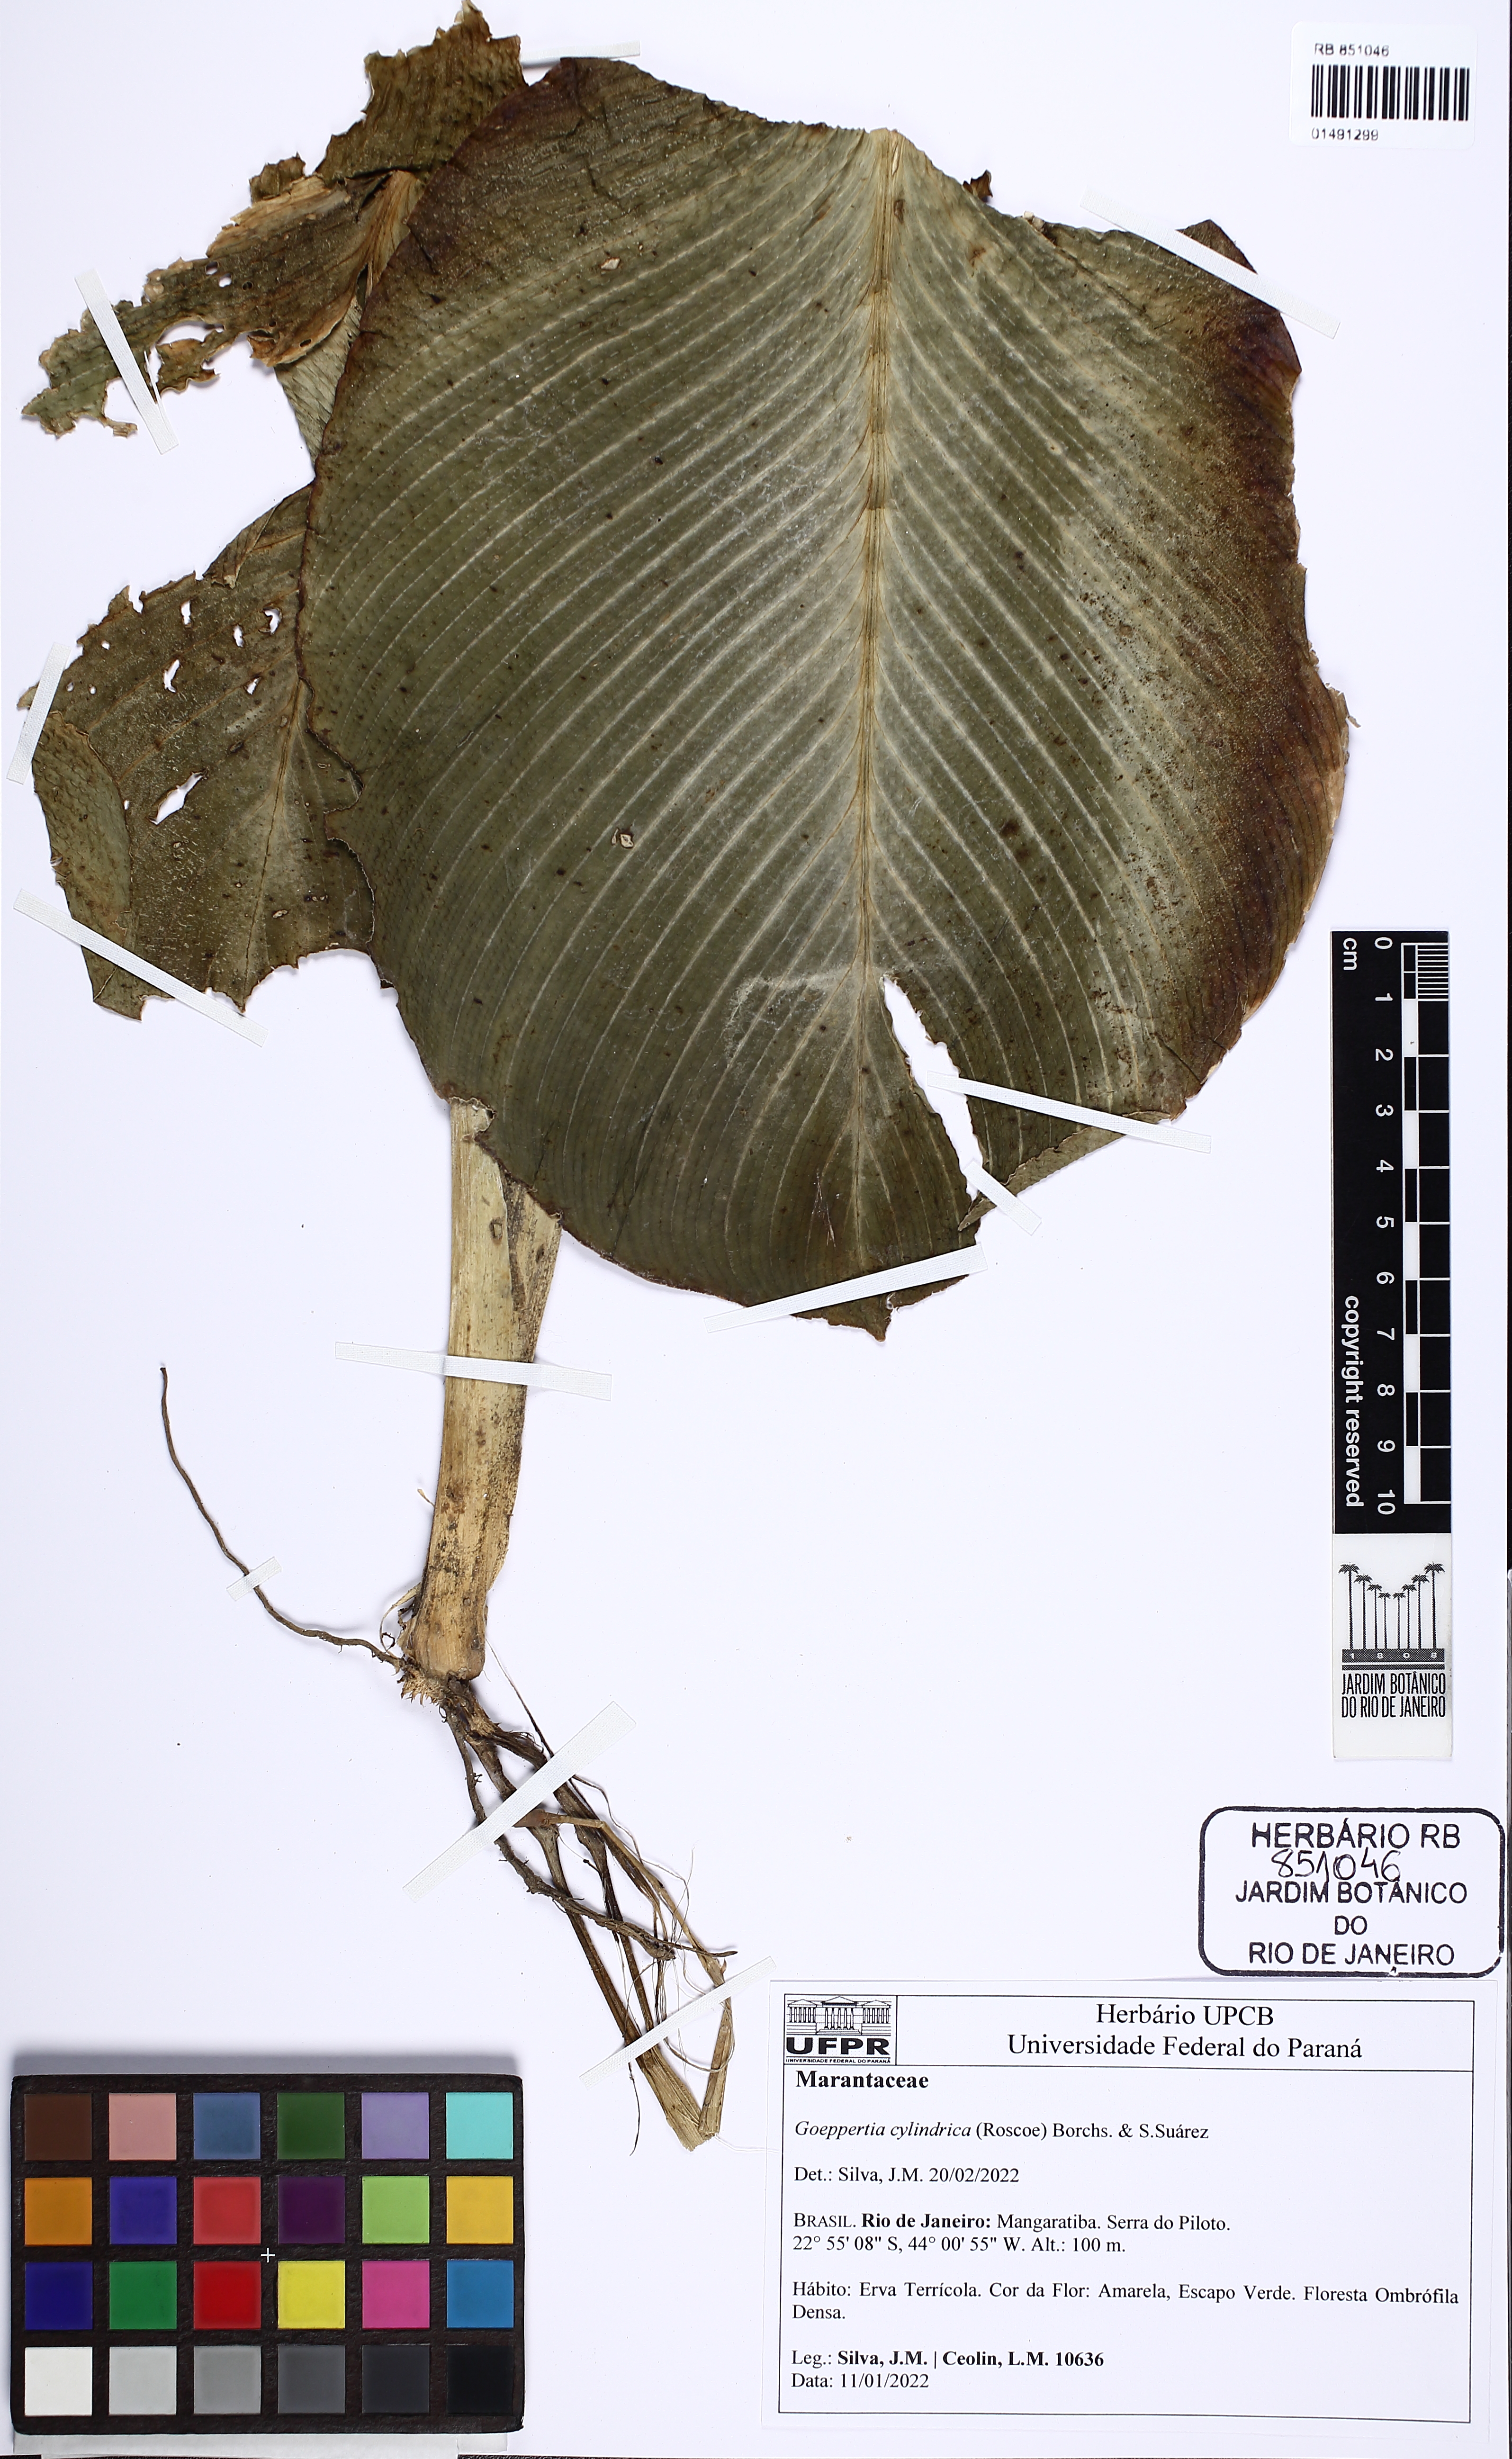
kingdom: Plantae
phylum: Tracheophyta
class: Liliopsida
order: Zingiberales
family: Marantaceae
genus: Goeppertia
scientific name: Goeppertia cylindrica
